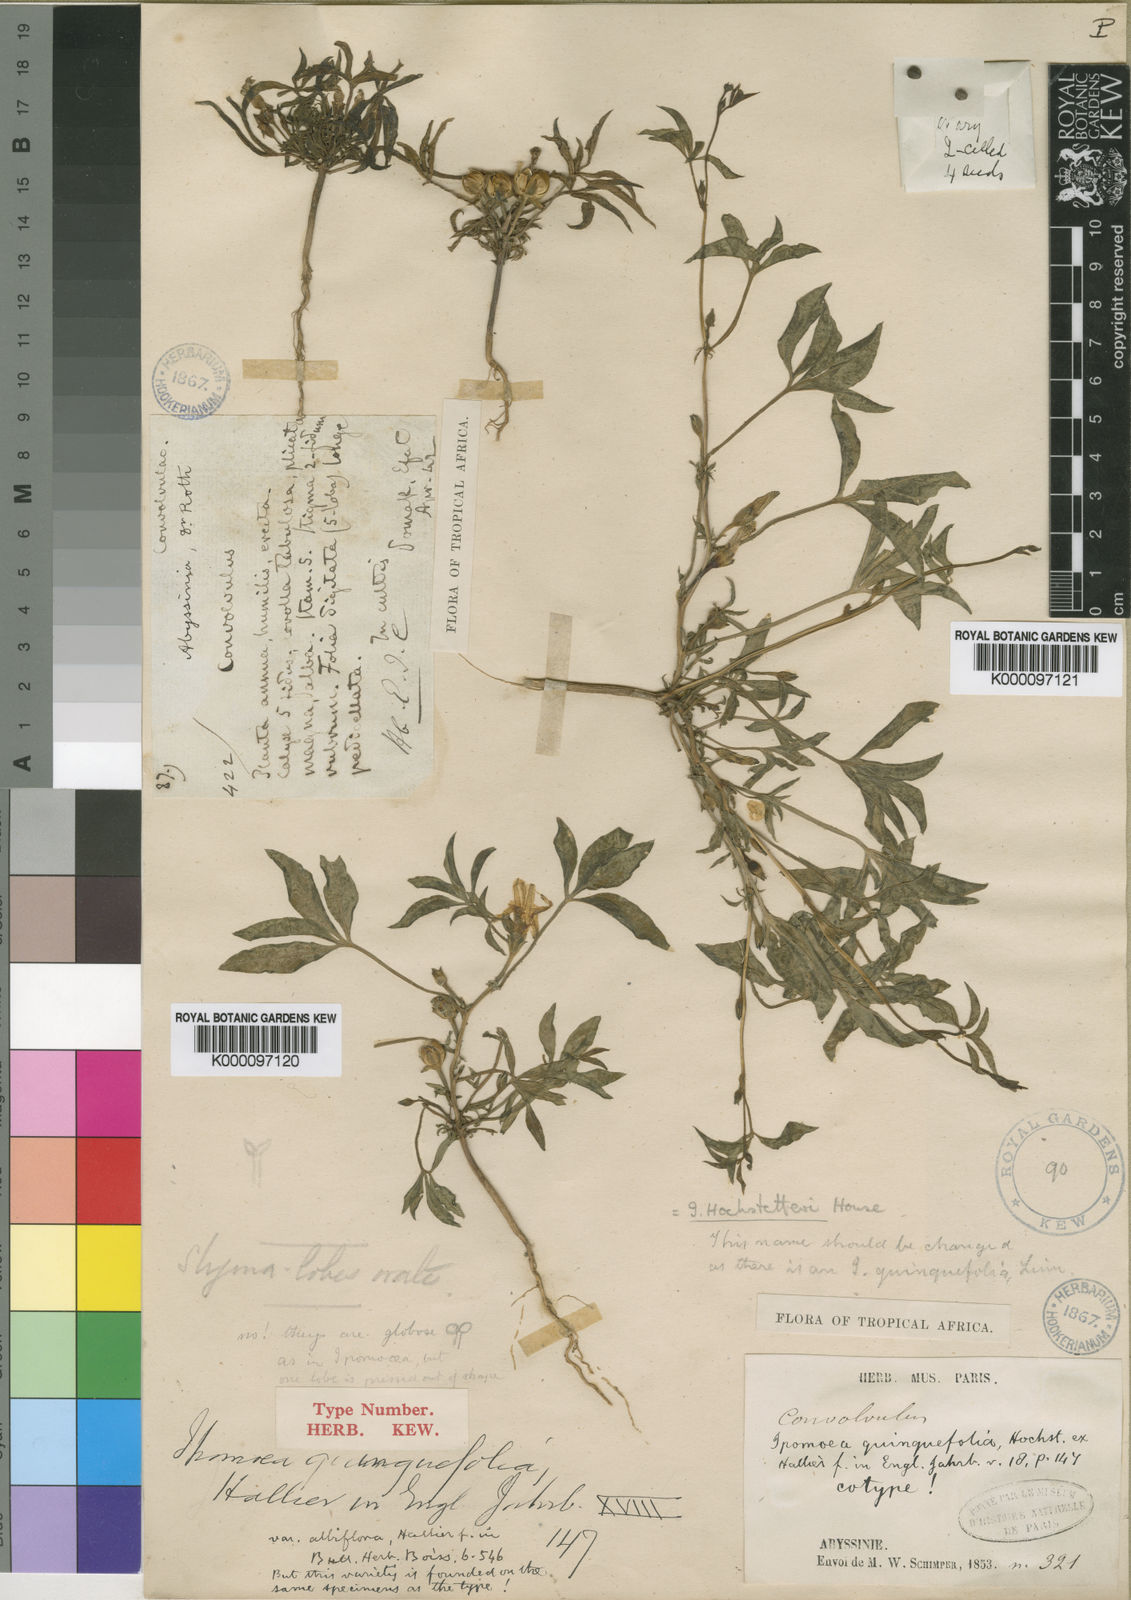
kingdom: Plantae
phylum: Tracheophyta
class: Magnoliopsida
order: Solanales
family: Convolvulaceae
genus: Ipomoea
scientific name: Ipomoea hochstetteri
